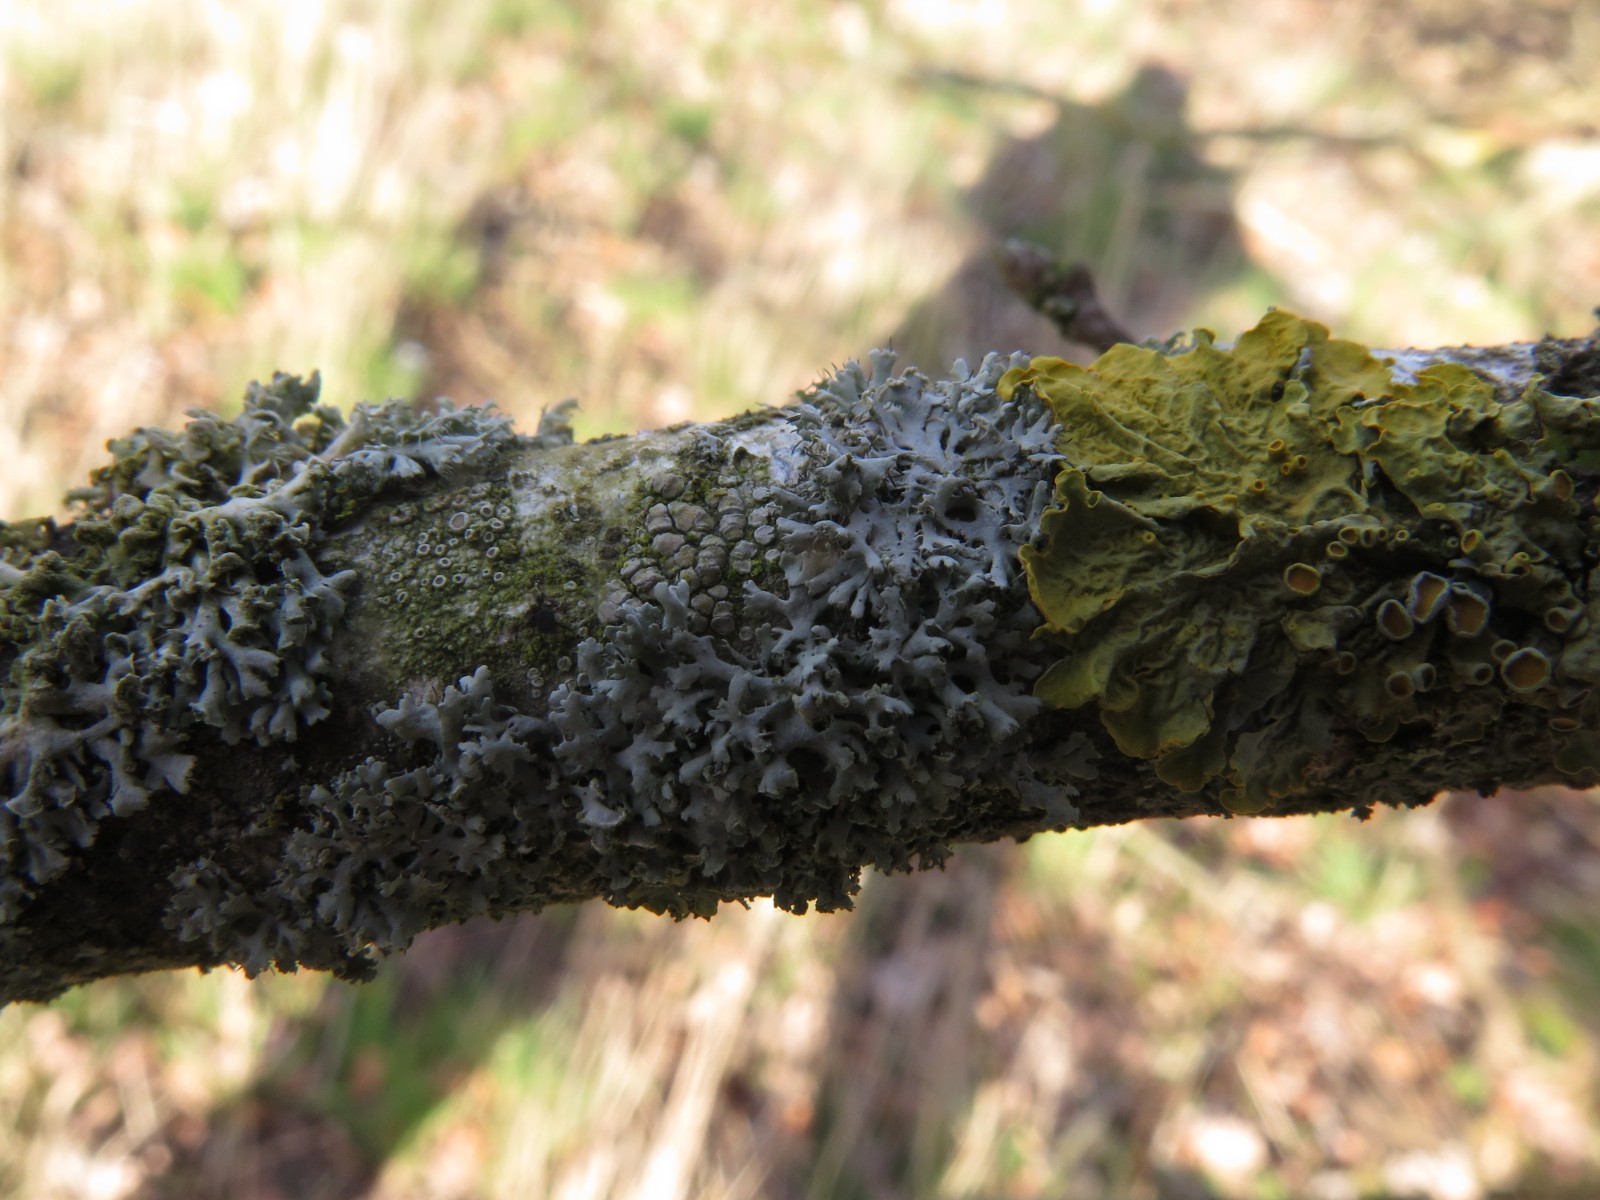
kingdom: Fungi
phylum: Ascomycota
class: Lecanoromycetes
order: Lecanorales
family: Parmeliaceae
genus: Hypogymnia
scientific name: Hypogymnia physodes
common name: almindelig kvistlav
